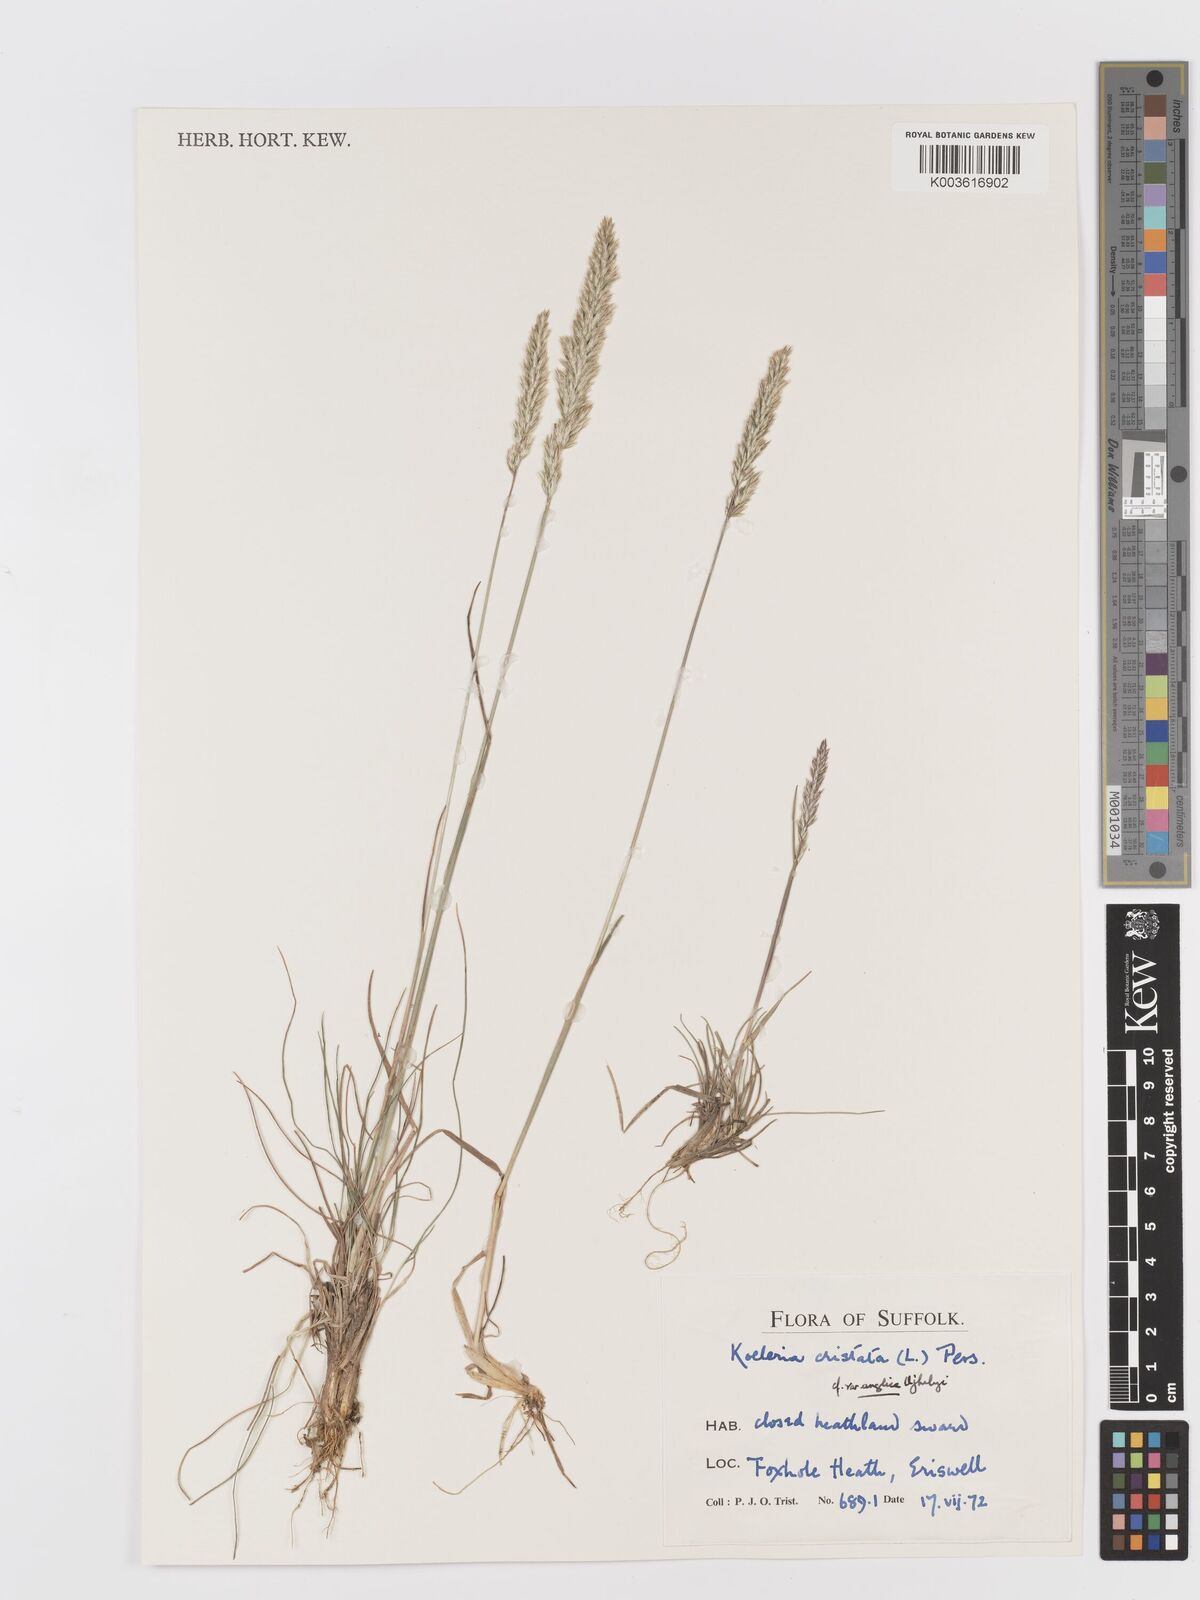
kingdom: Plantae
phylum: Tracheophyta
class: Liliopsida
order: Poales
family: Poaceae
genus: Koeleria
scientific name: Koeleria macrantha
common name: Crested hair-grass
